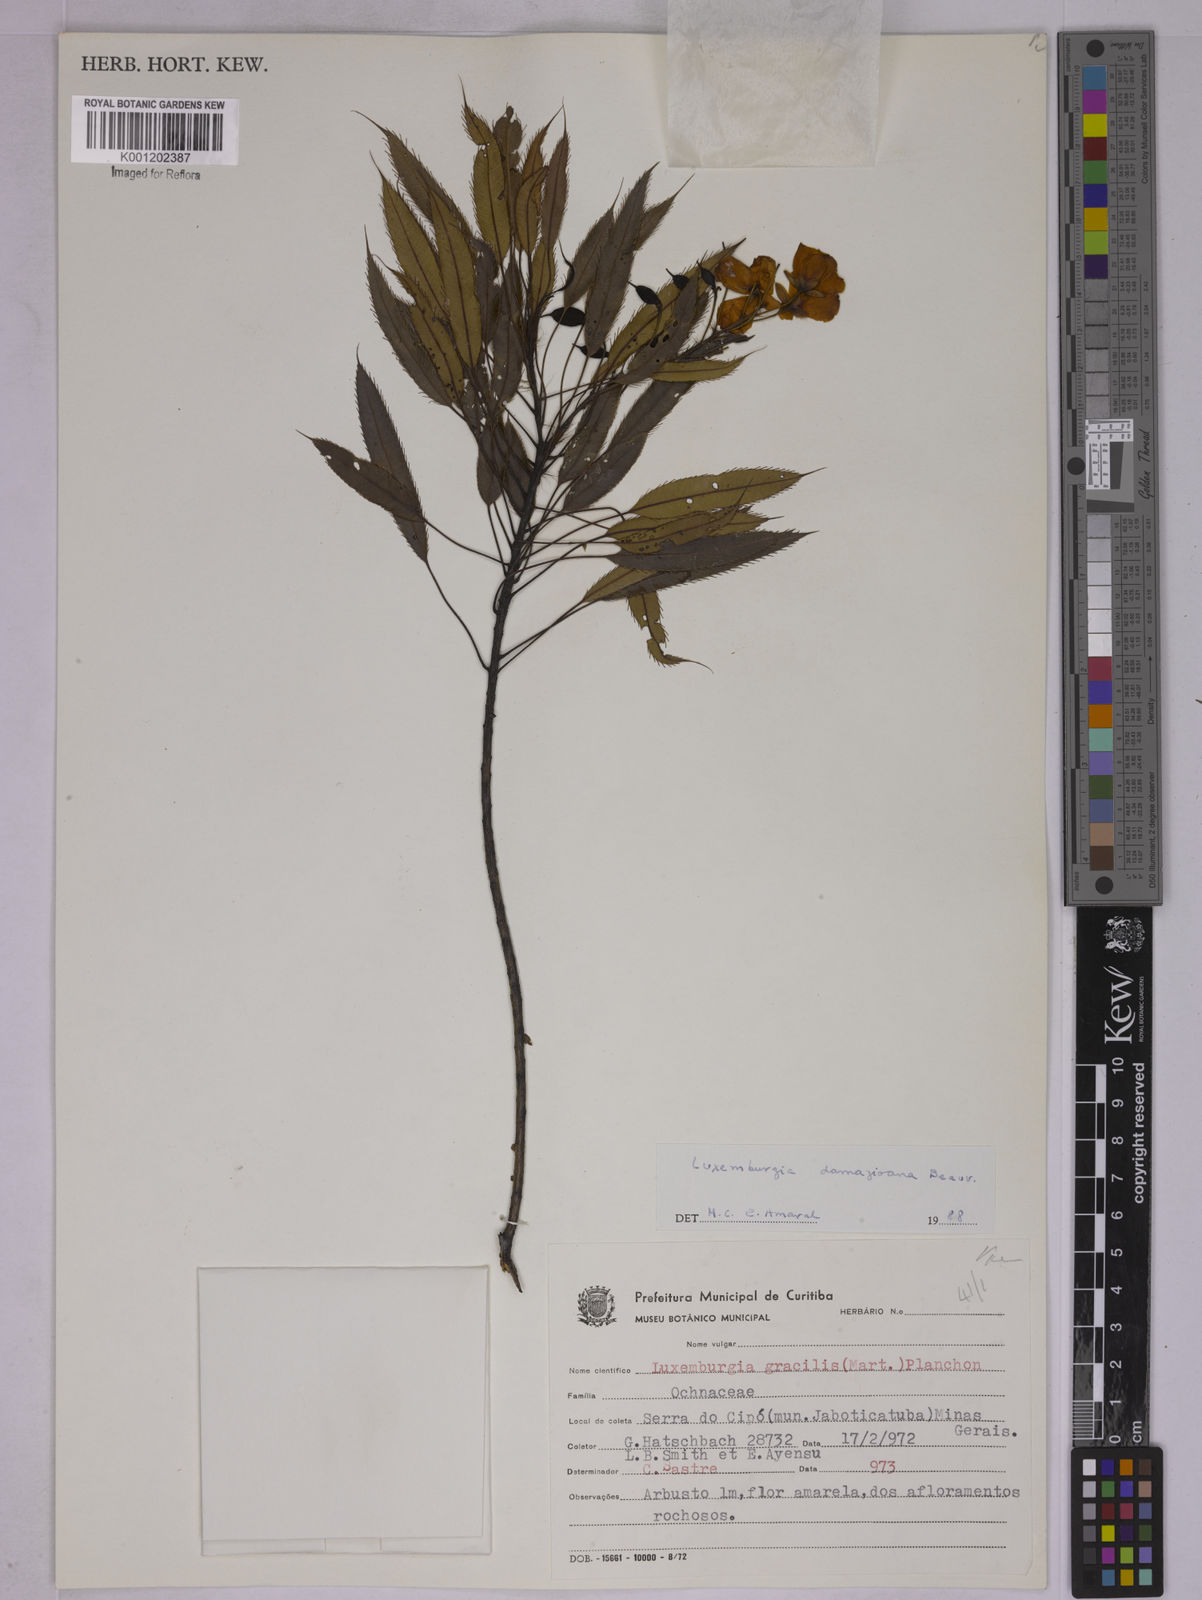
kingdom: Plantae
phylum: Tracheophyta
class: Magnoliopsida
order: Malpighiales
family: Ochnaceae
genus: Luxemburgia
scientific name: Luxemburgia damazioana
